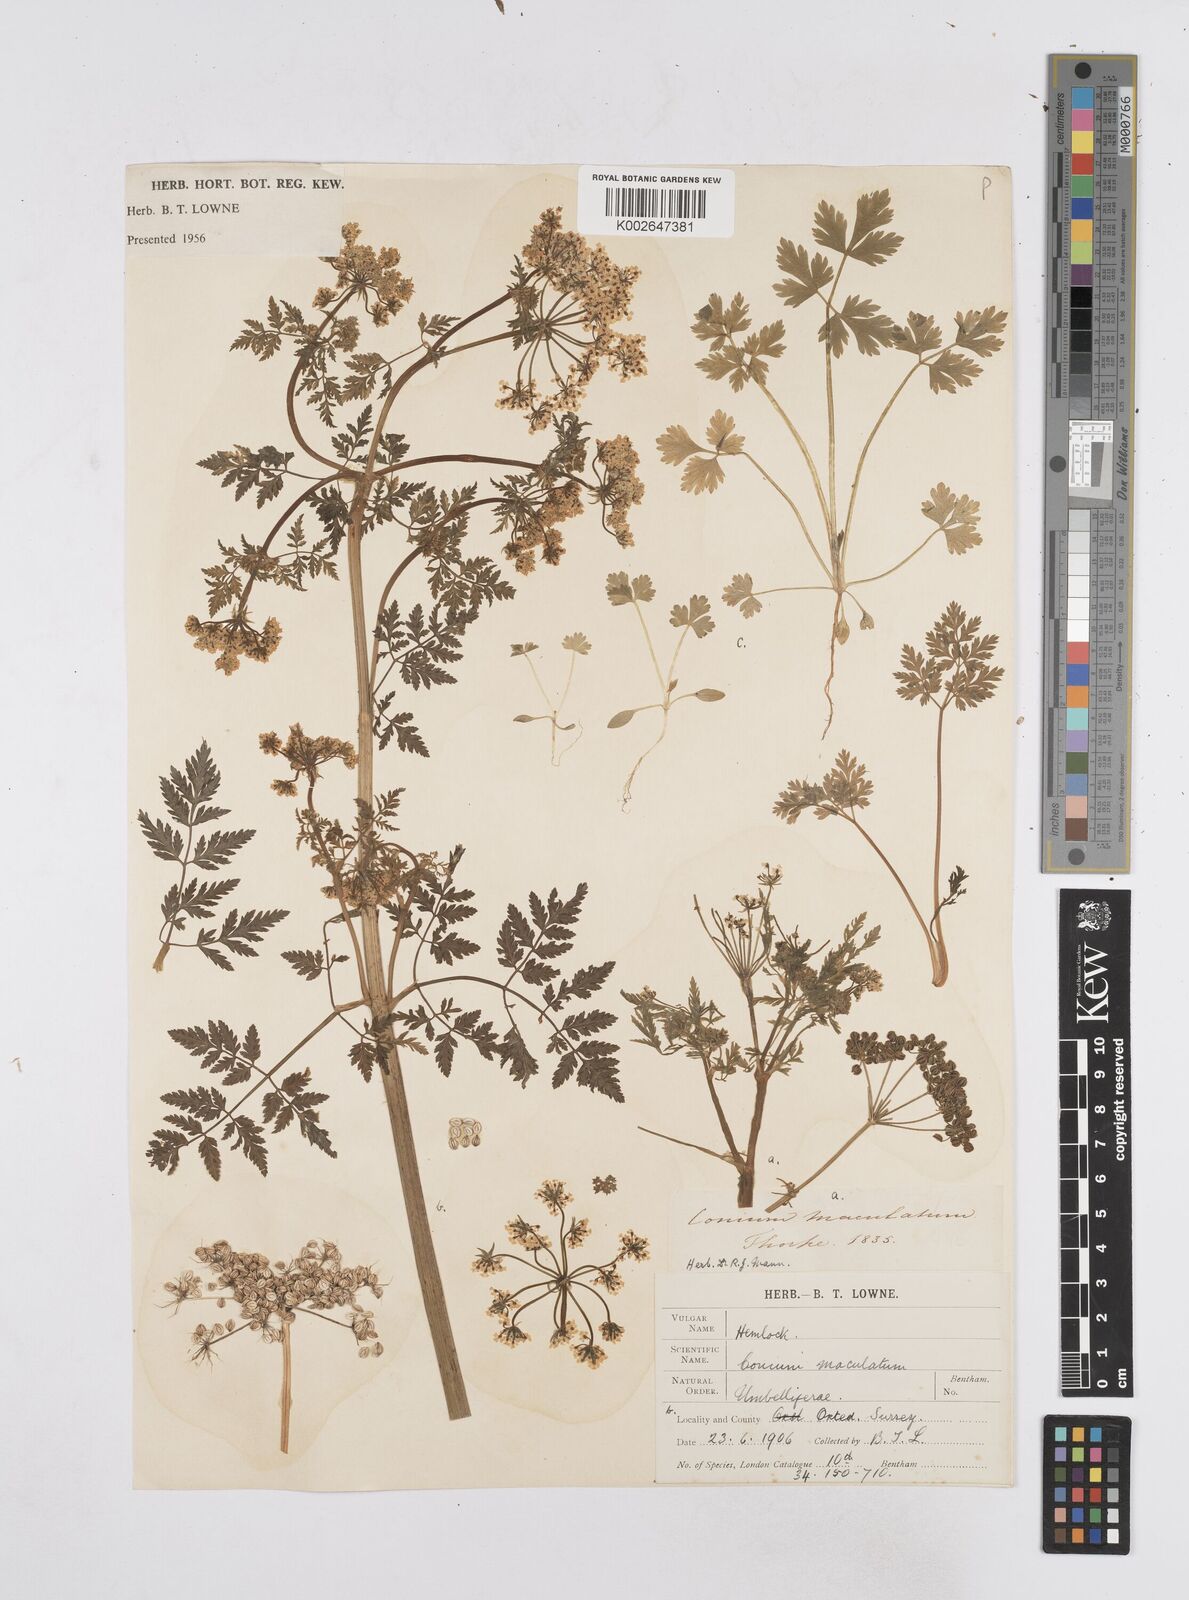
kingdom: Plantae
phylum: Tracheophyta
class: Magnoliopsida
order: Apiales
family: Apiaceae
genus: Conium
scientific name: Conium maculatum
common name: Hemlock
